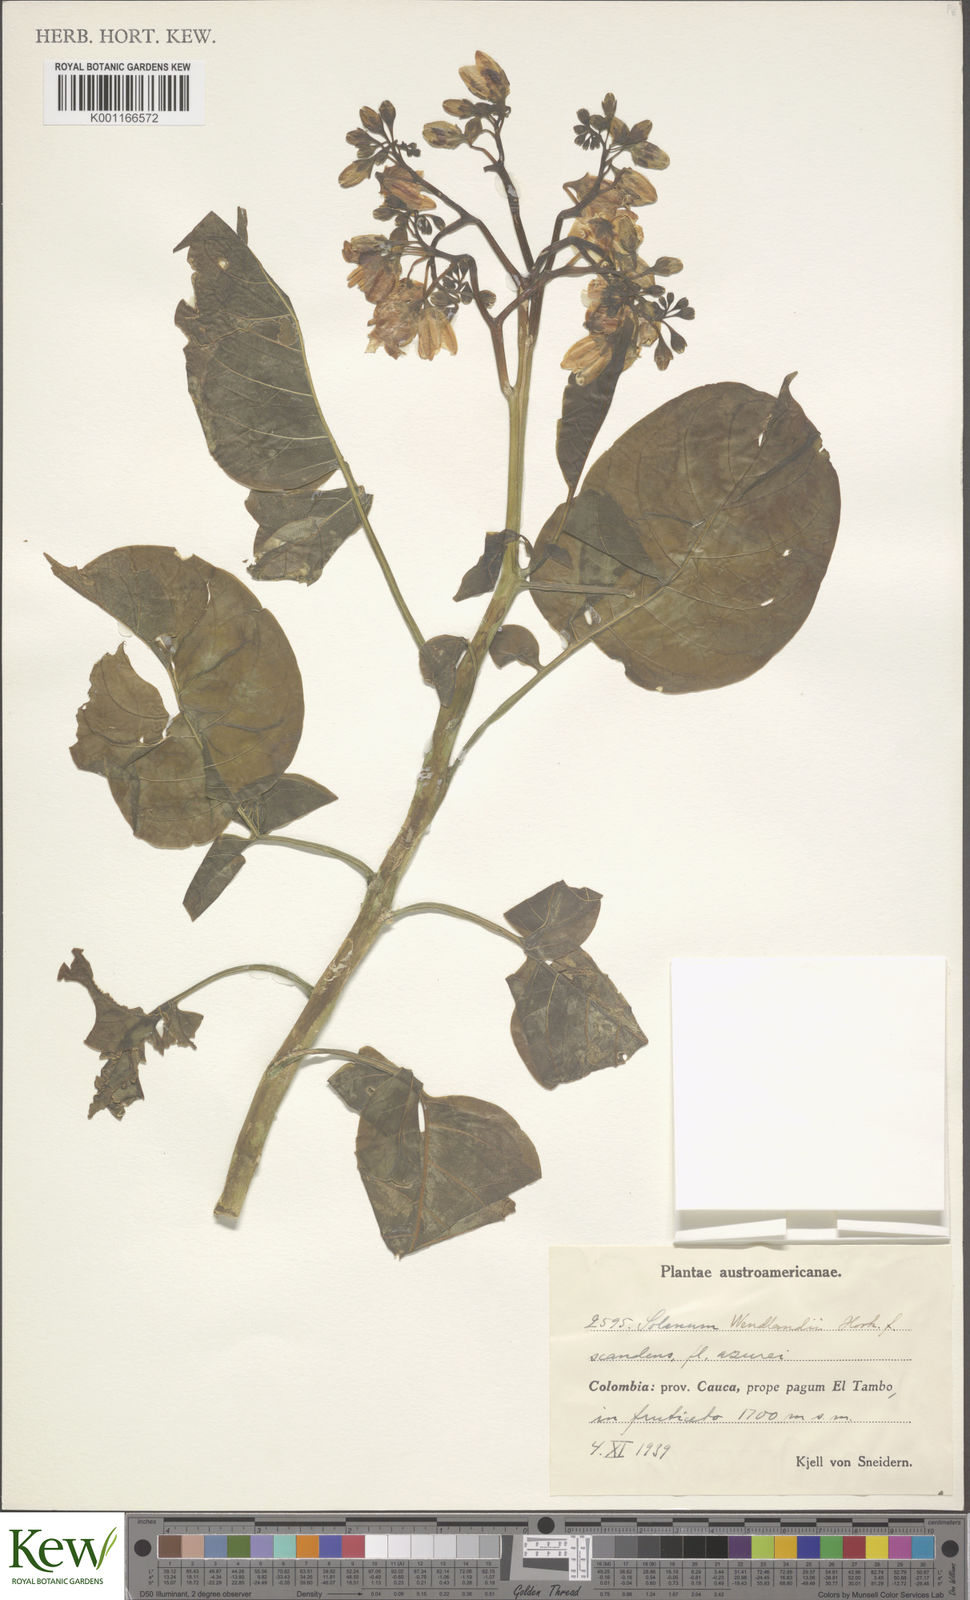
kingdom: Plantae
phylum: Tracheophyta
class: Magnoliopsida
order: Solanales
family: Solanaceae
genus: Solanum
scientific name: Solanum wendlandii
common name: Costa rican nightshade
